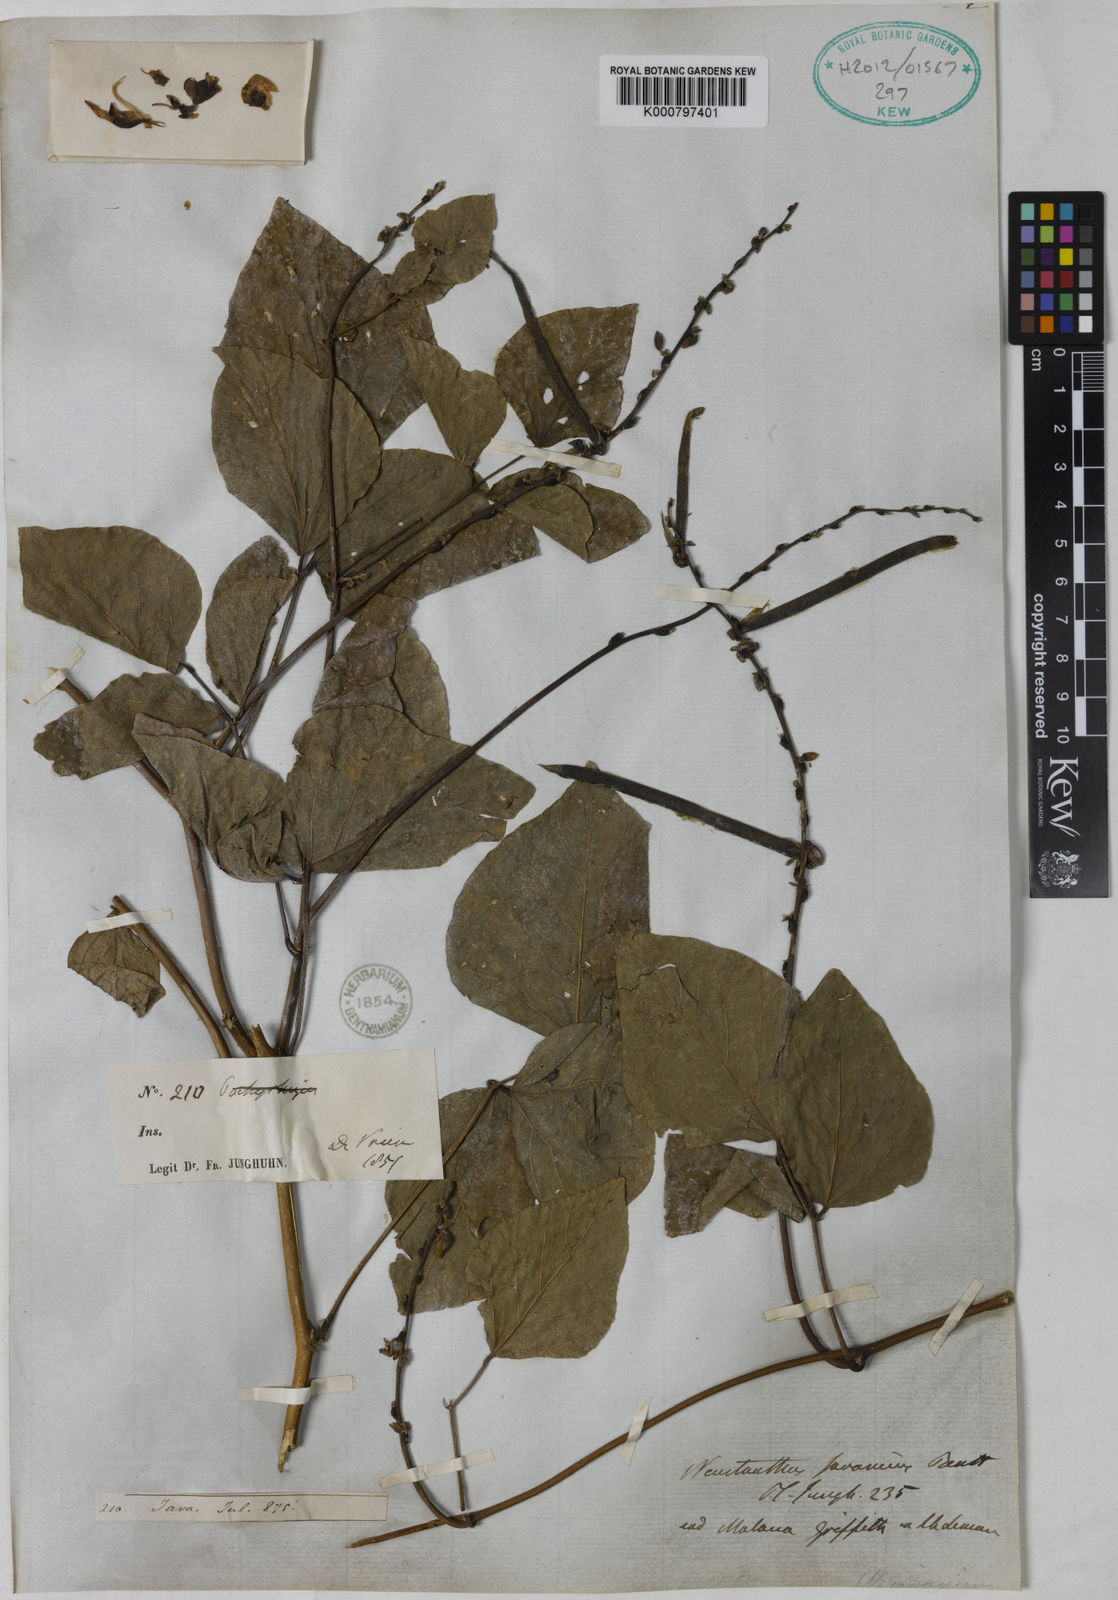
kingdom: Plantae
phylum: Tracheophyta
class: Magnoliopsida
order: Fabales
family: Fabaceae
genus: Neustanthus
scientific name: Neustanthus phaseoloides
